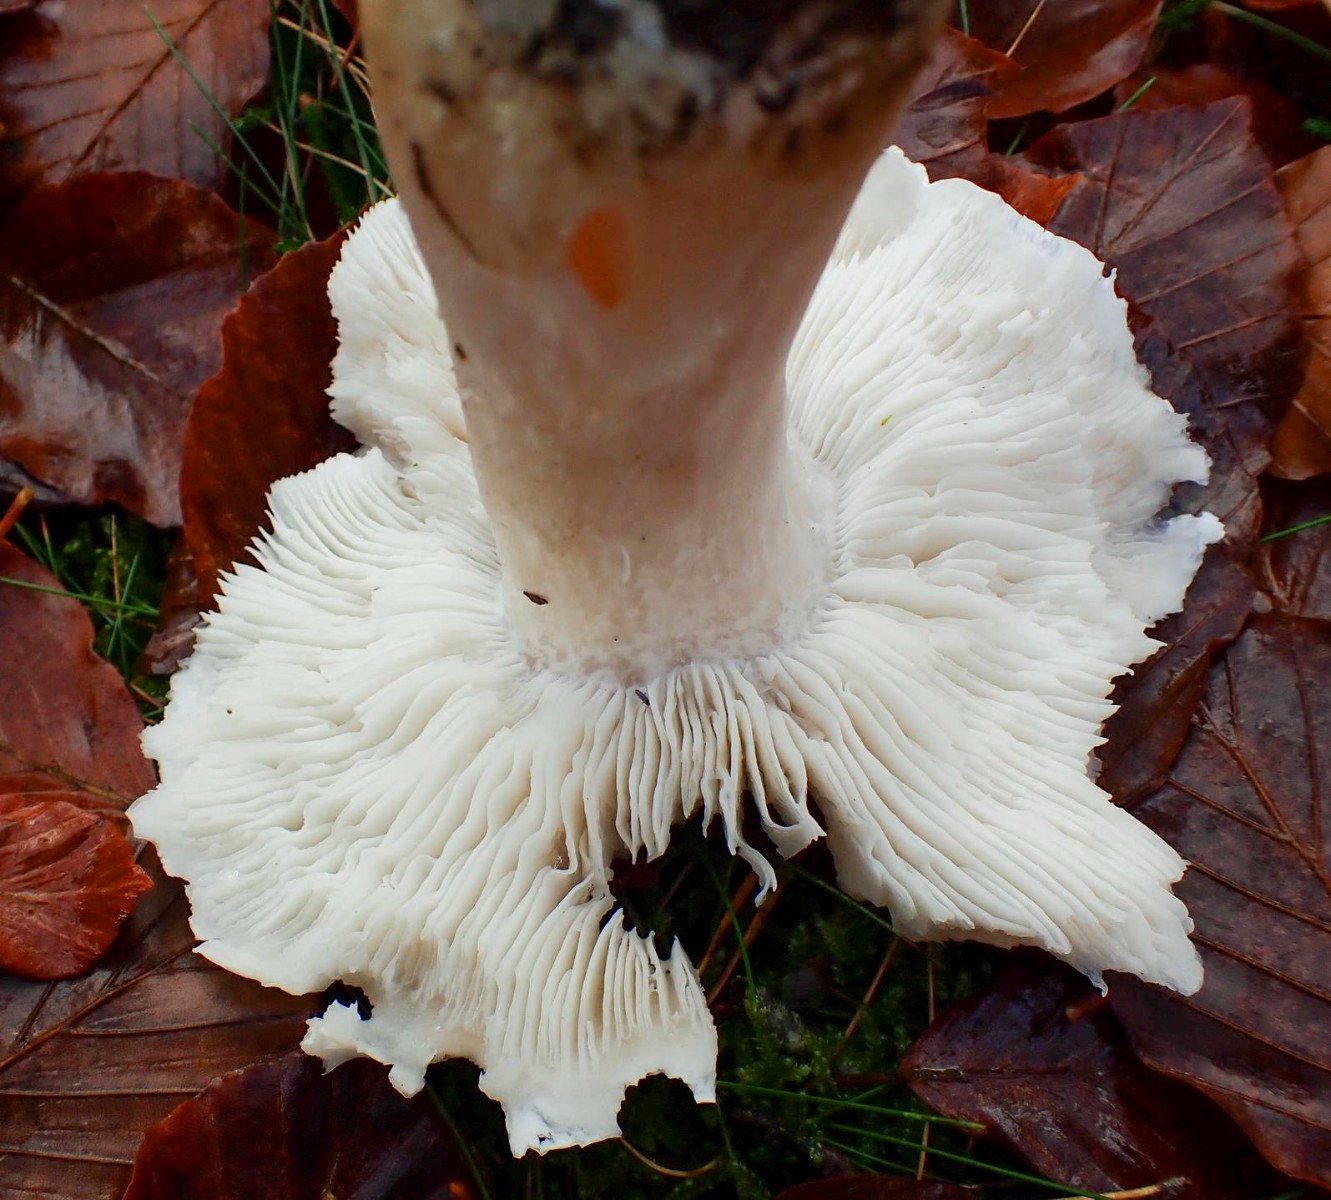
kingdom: Fungi
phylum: Basidiomycota
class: Agaricomycetes
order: Agaricales
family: Tricholomataceae
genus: Tricholoma
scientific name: Tricholoma columbetta
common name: silke-ridderhat
